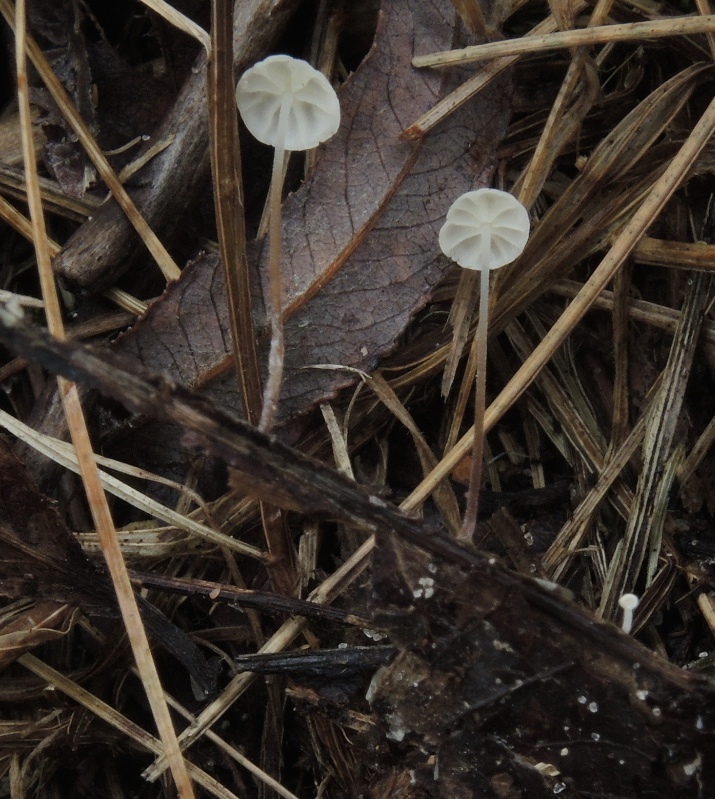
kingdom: Fungi
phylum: Basidiomycota
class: Agaricomycetes
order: Agaricales
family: Physalacriaceae
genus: Rhizomarasmius
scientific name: Rhizomarasmius setosus
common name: bøgeblads-bruskhat
